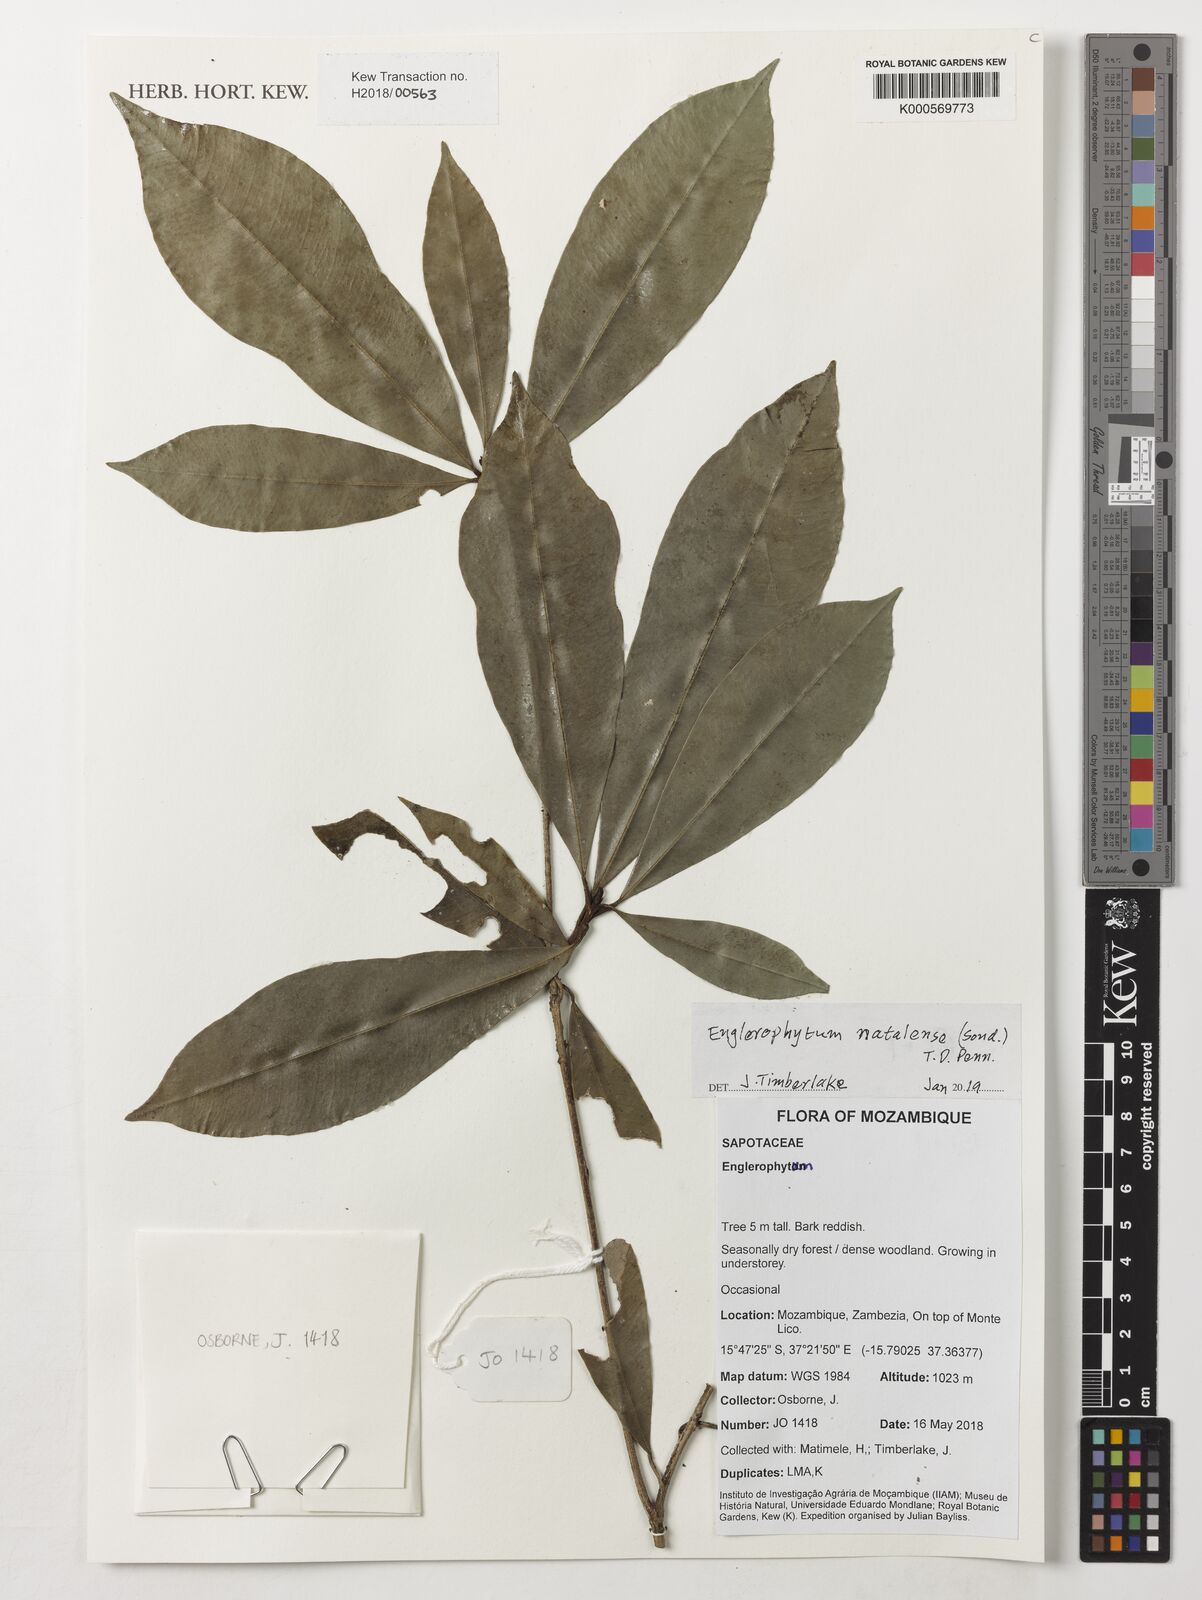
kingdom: Plantae
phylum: Tracheophyta
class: Magnoliopsida
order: Ericales
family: Sapotaceae
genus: Englerophytum
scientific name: Englerophytum natalense
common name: Silver-leaved milkplum
